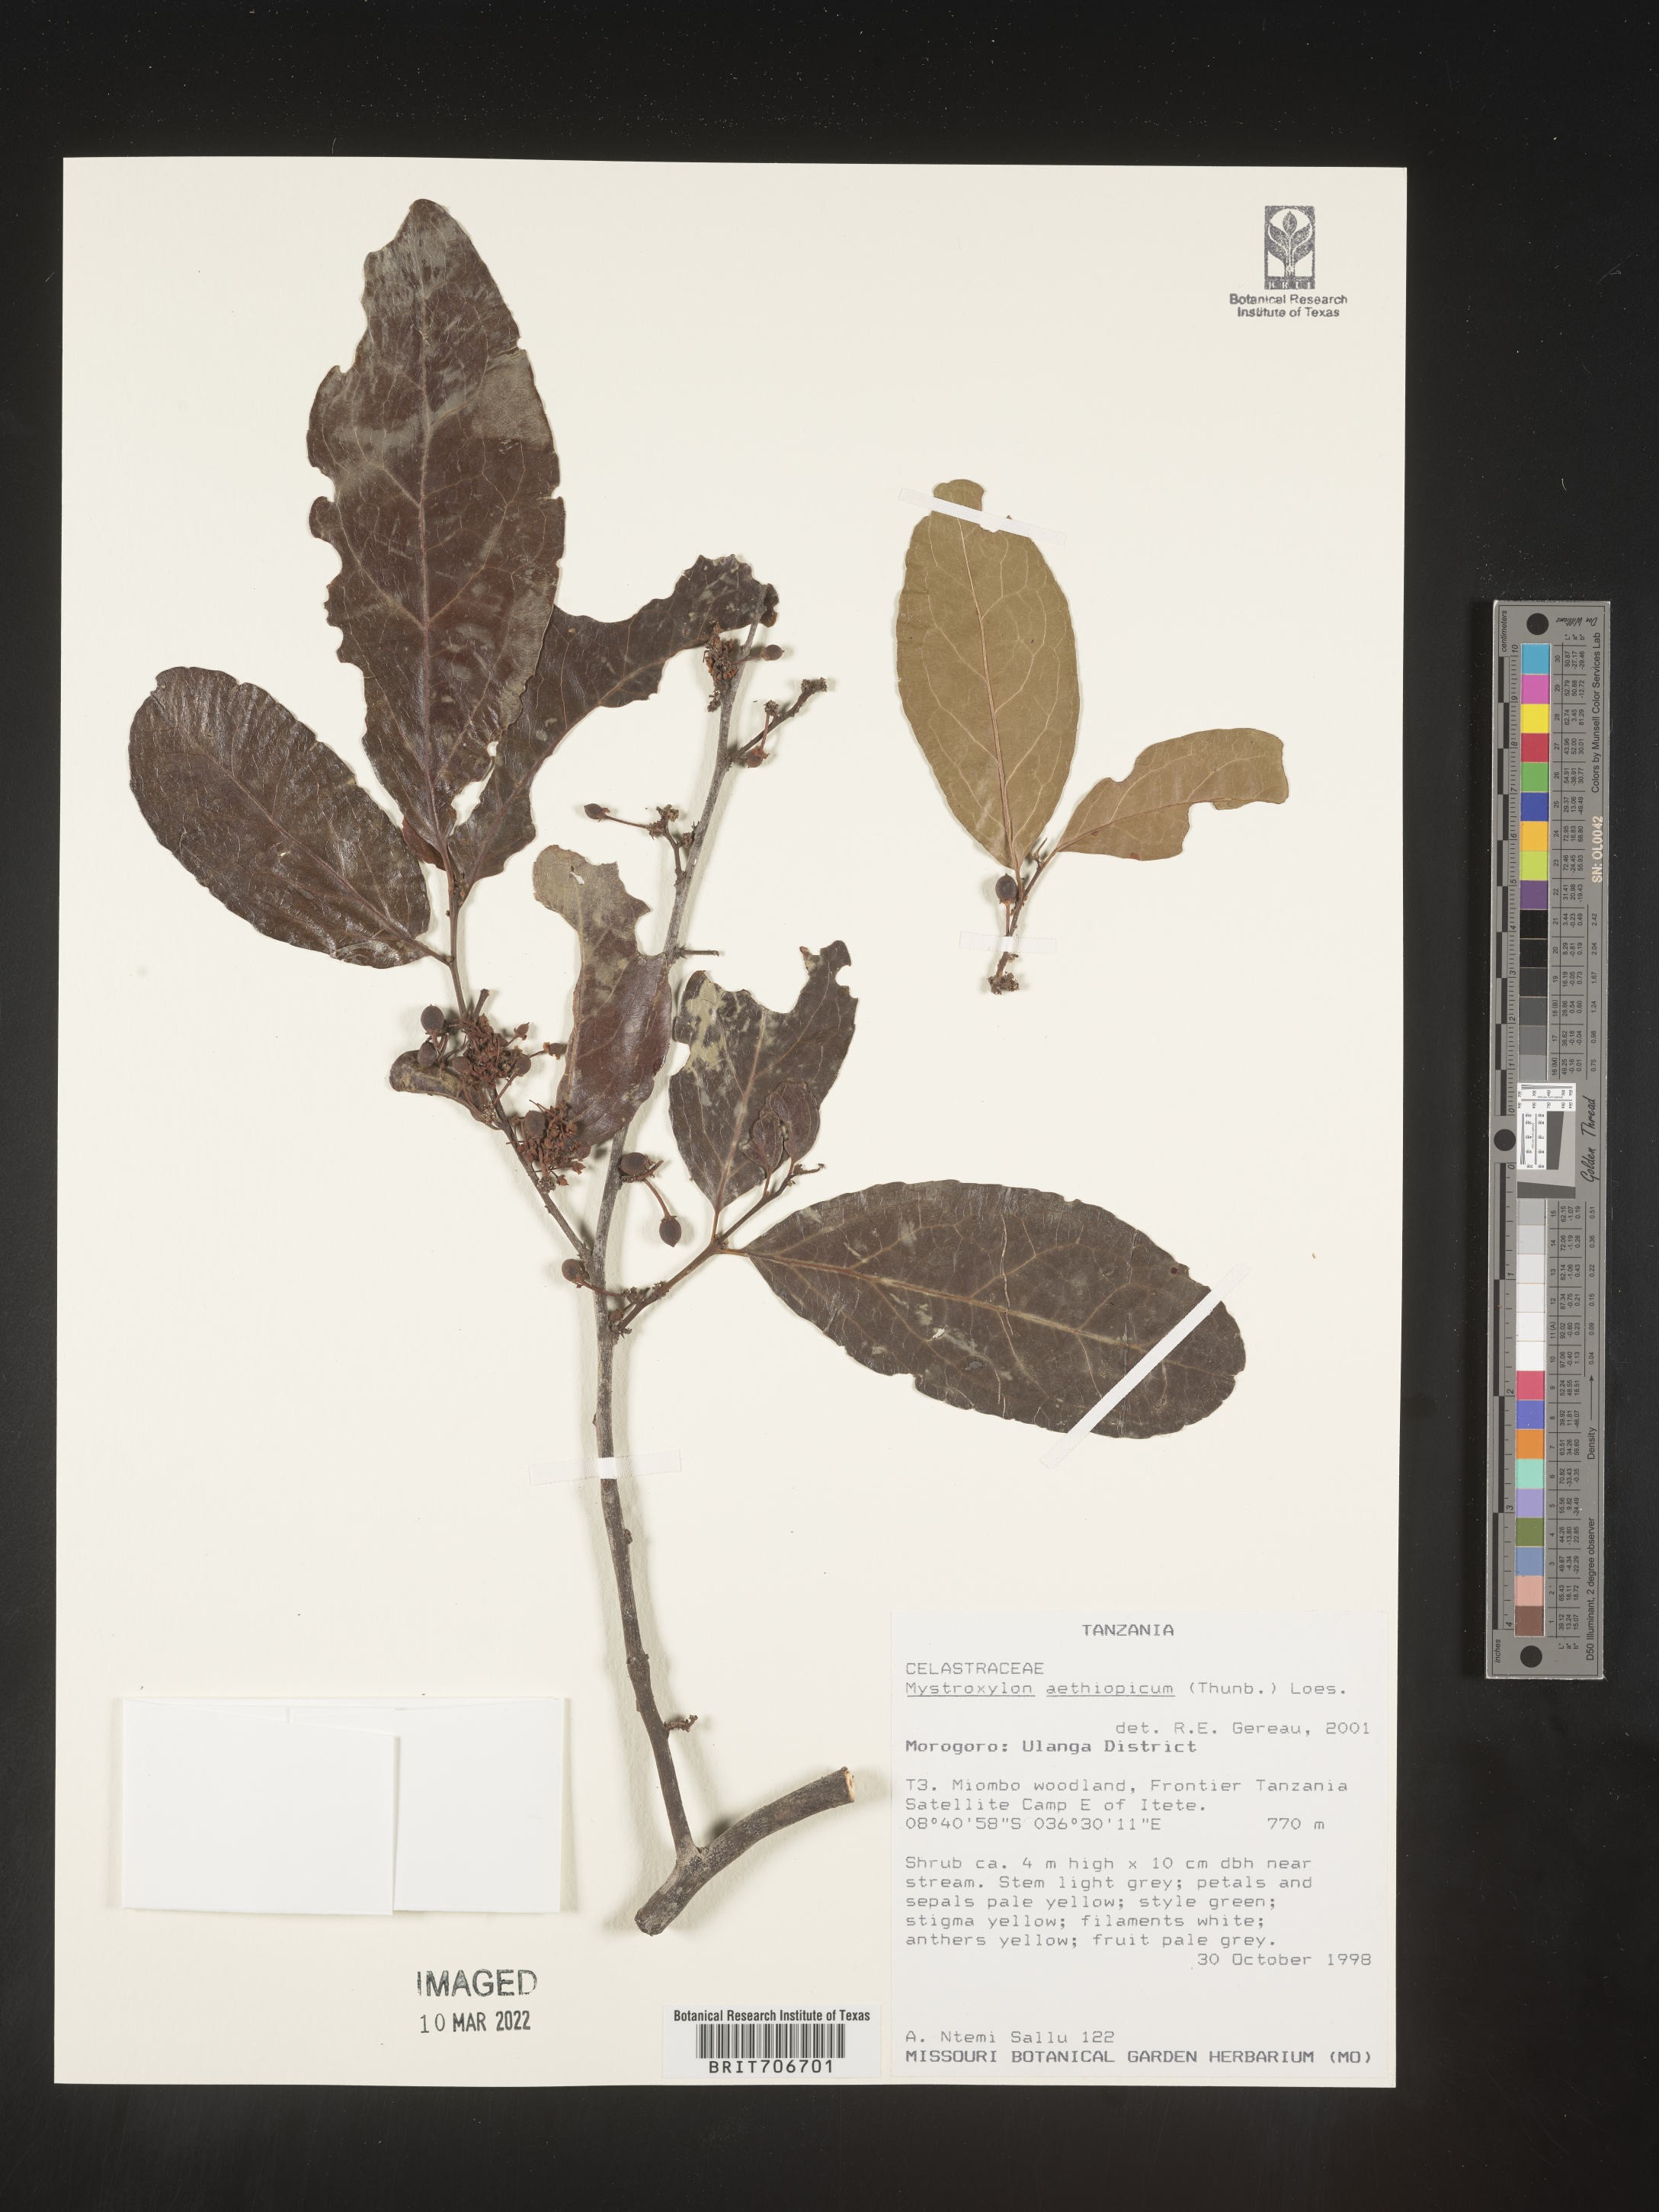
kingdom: Plantae
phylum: Tracheophyta
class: Magnoliopsida
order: Celastrales
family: Celastraceae
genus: Mystroxylon
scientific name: Mystroxylon
